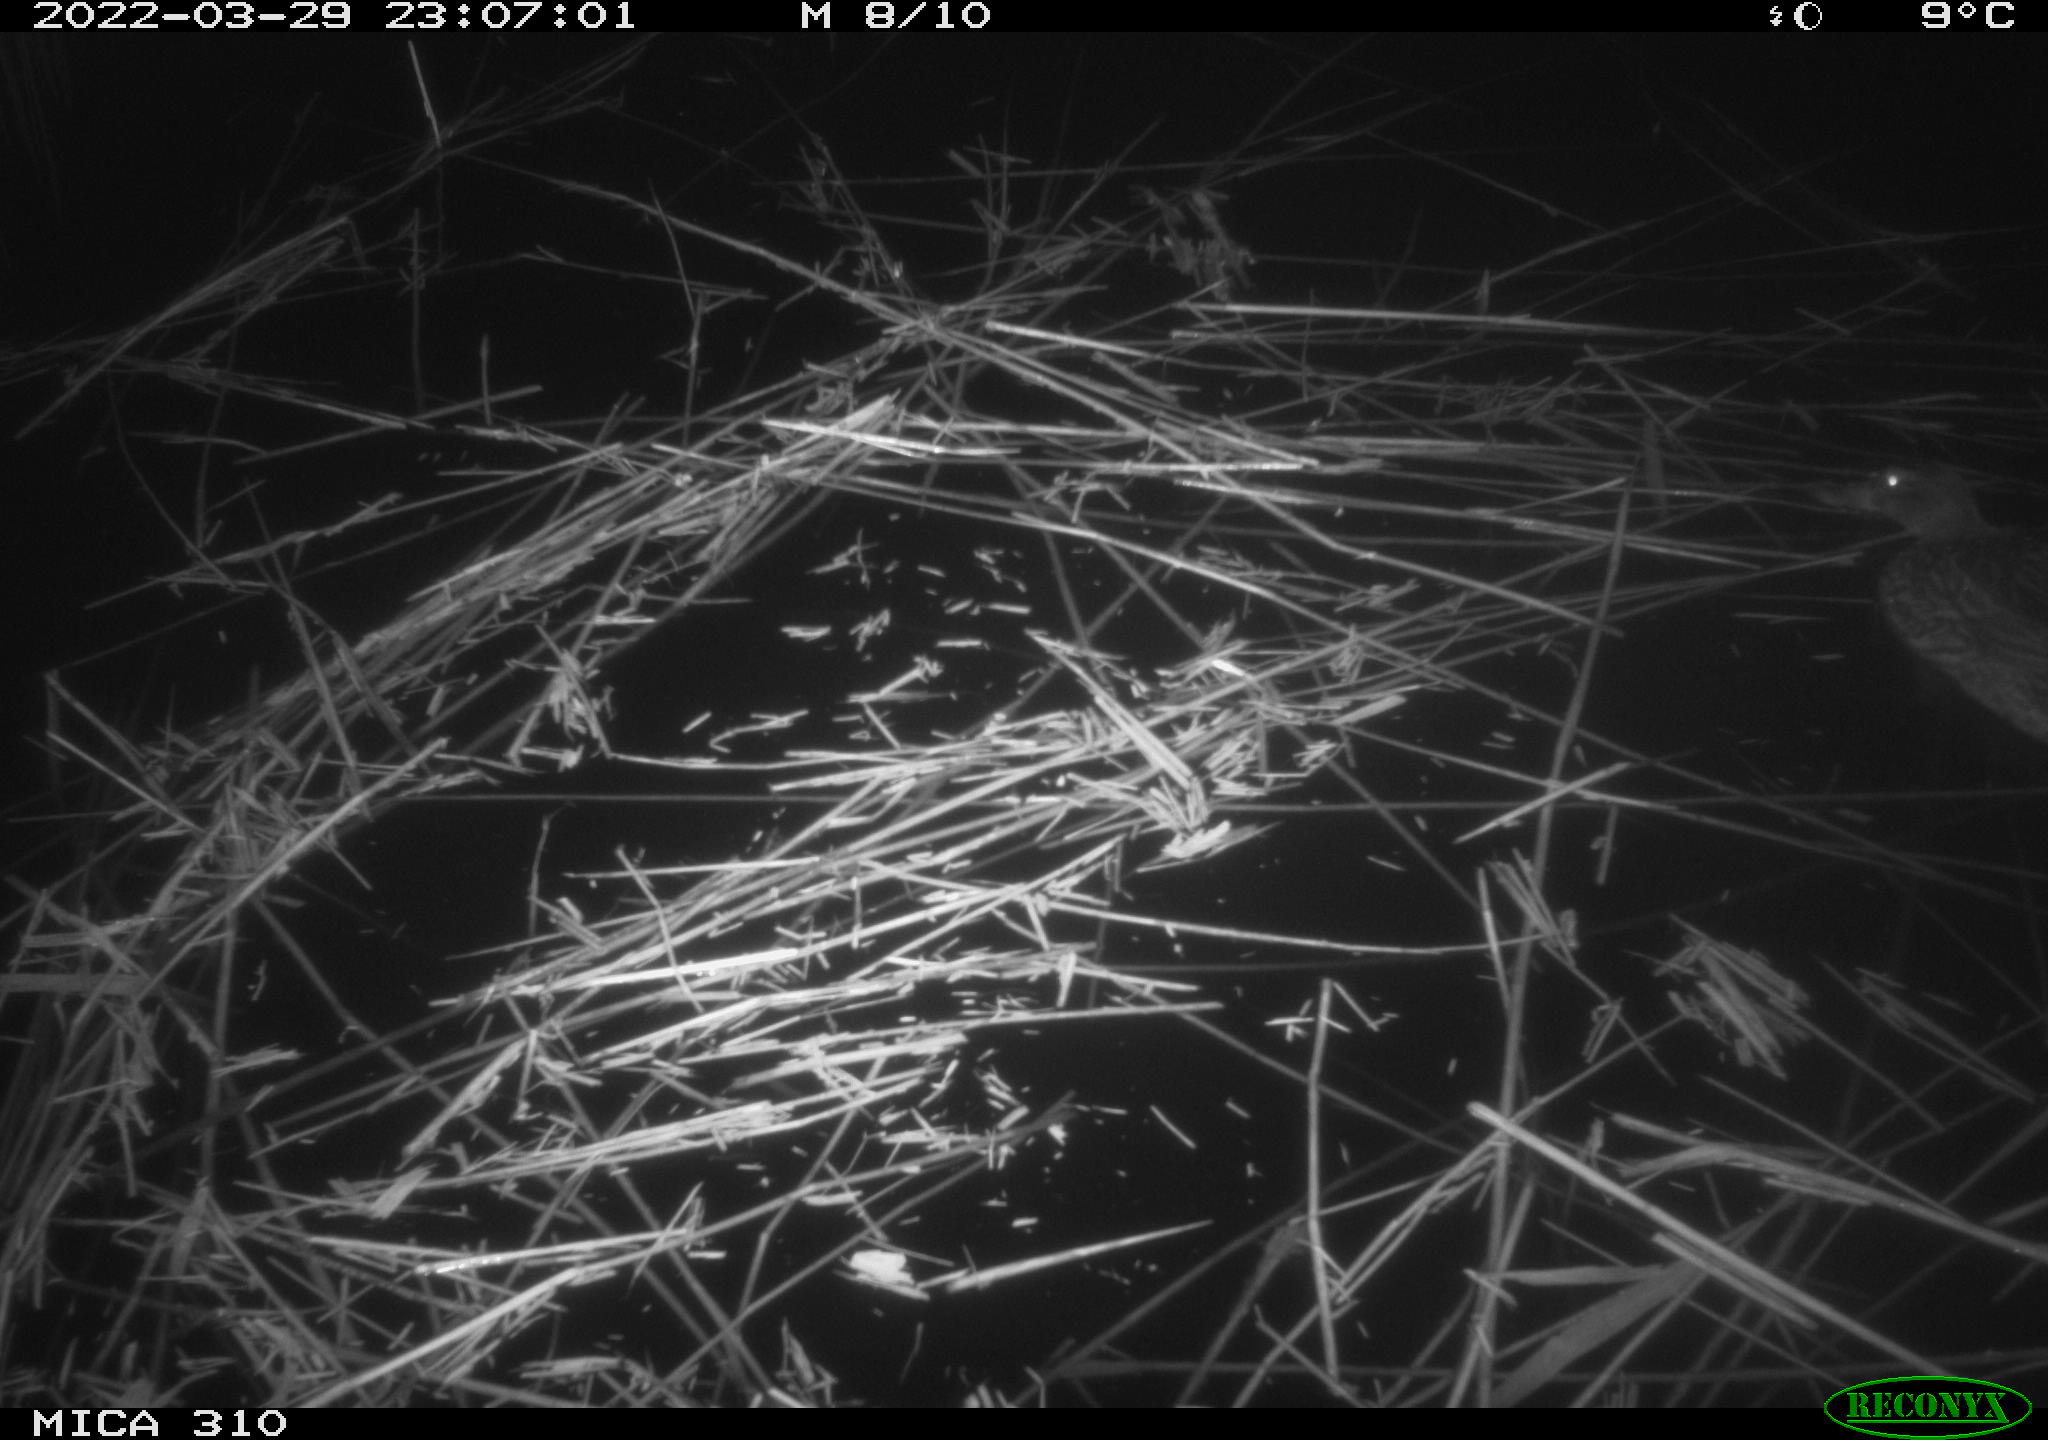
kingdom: Animalia
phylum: Chordata
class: Aves
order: Anseriformes
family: Anatidae
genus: Anas
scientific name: Anas platyrhynchos
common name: Mallard
